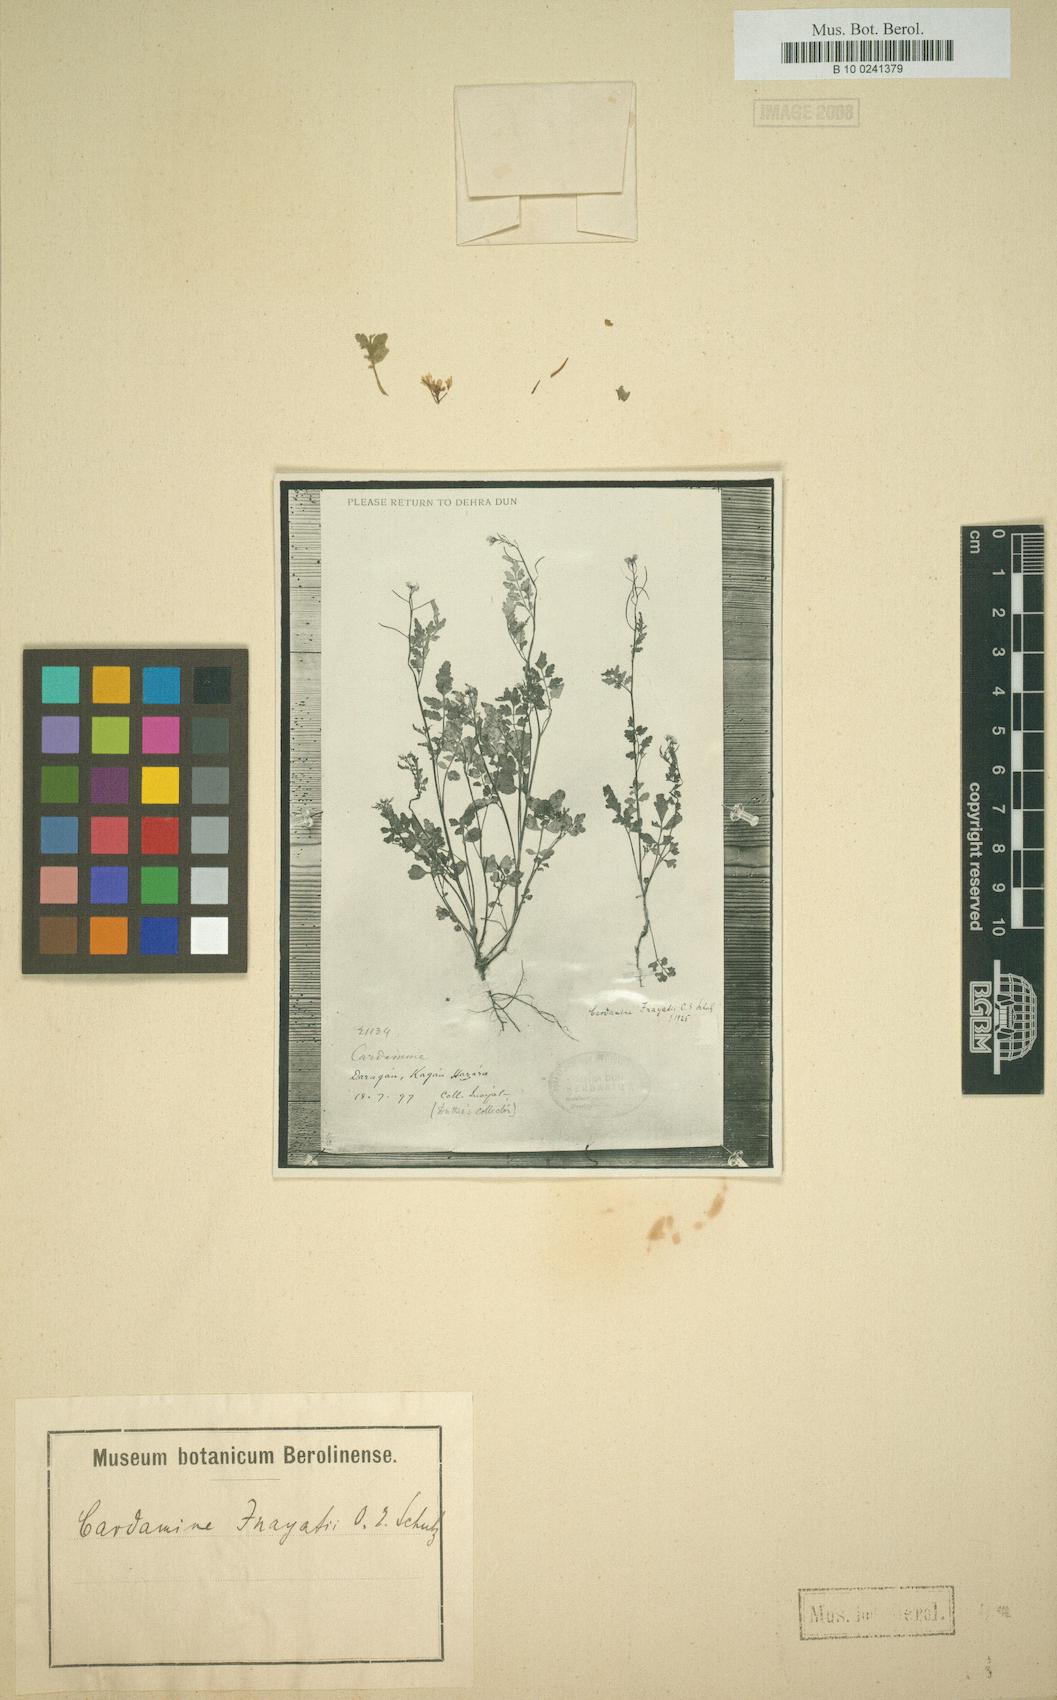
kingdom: Plantae
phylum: Tracheophyta
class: Magnoliopsida
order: Brassicales
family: Brassicaceae
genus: Cardamine
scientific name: Cardamine yunnanensis
